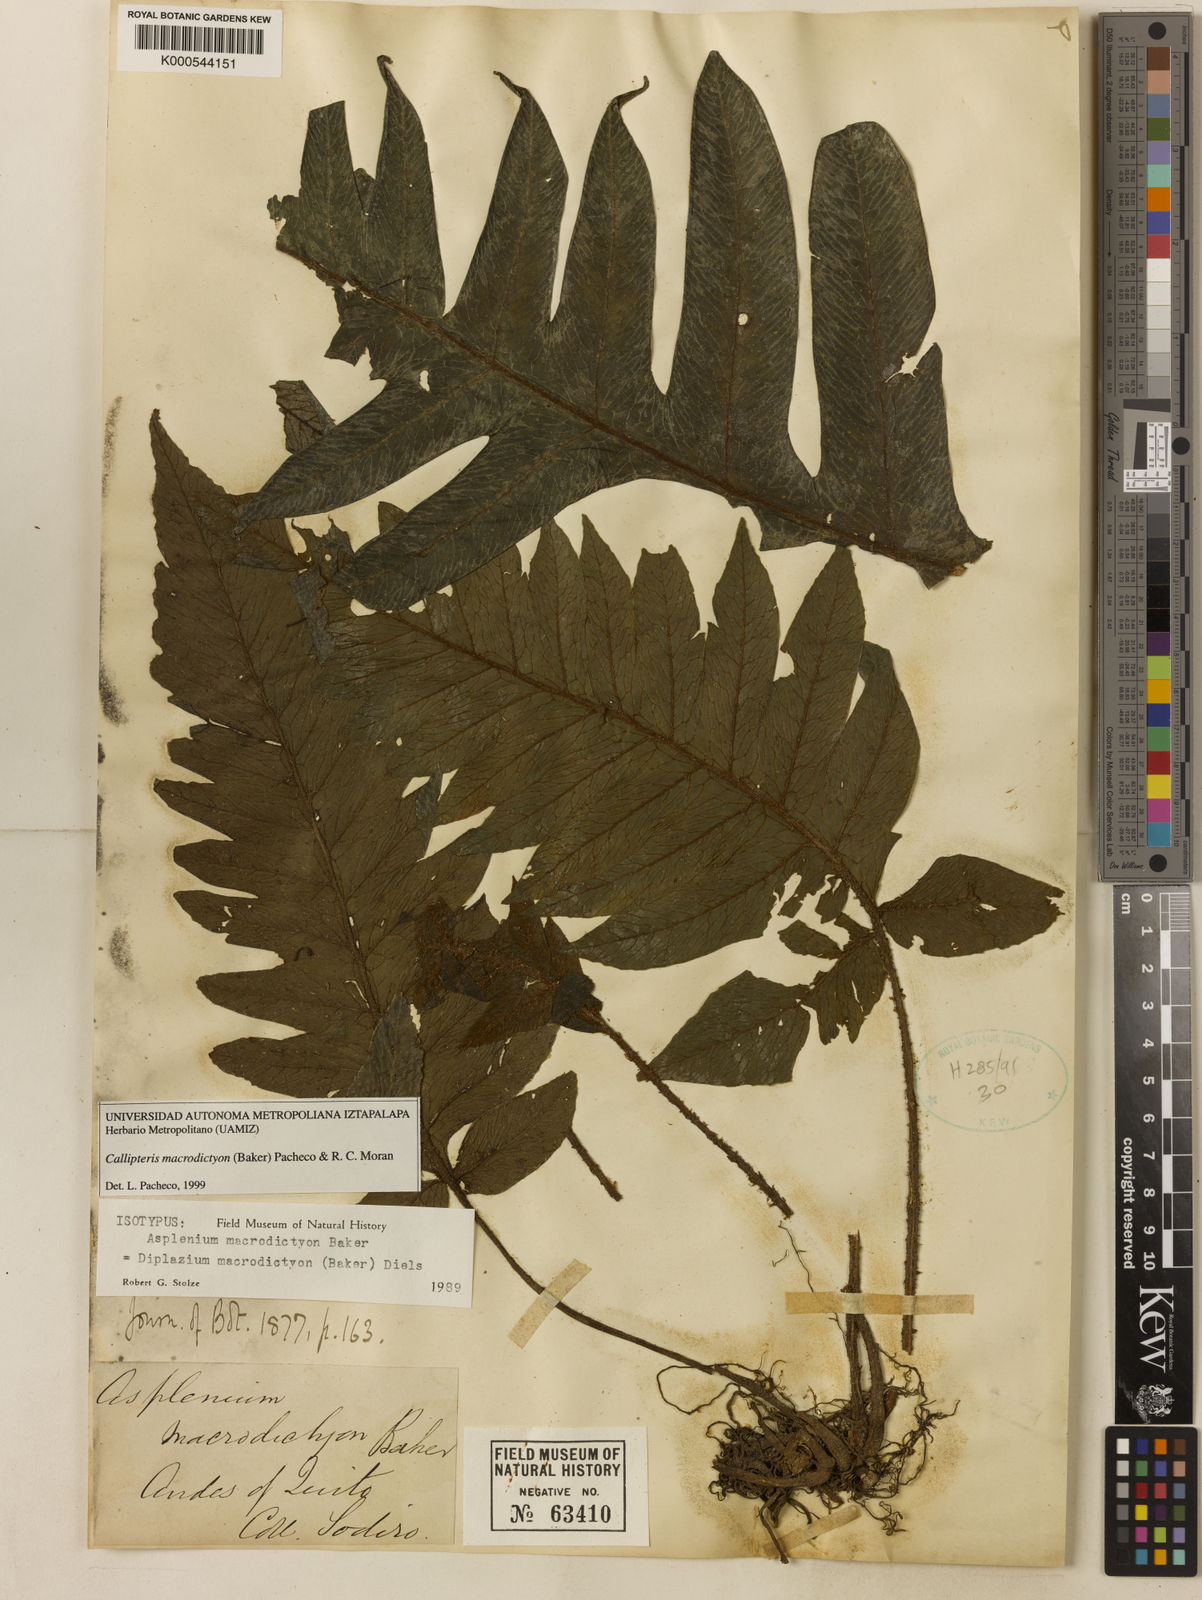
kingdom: Plantae
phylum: Tracheophyta
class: Polypodiopsida
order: Polypodiales
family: Athyriaceae
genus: Diplazium
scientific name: Diplazium macrodictyon
